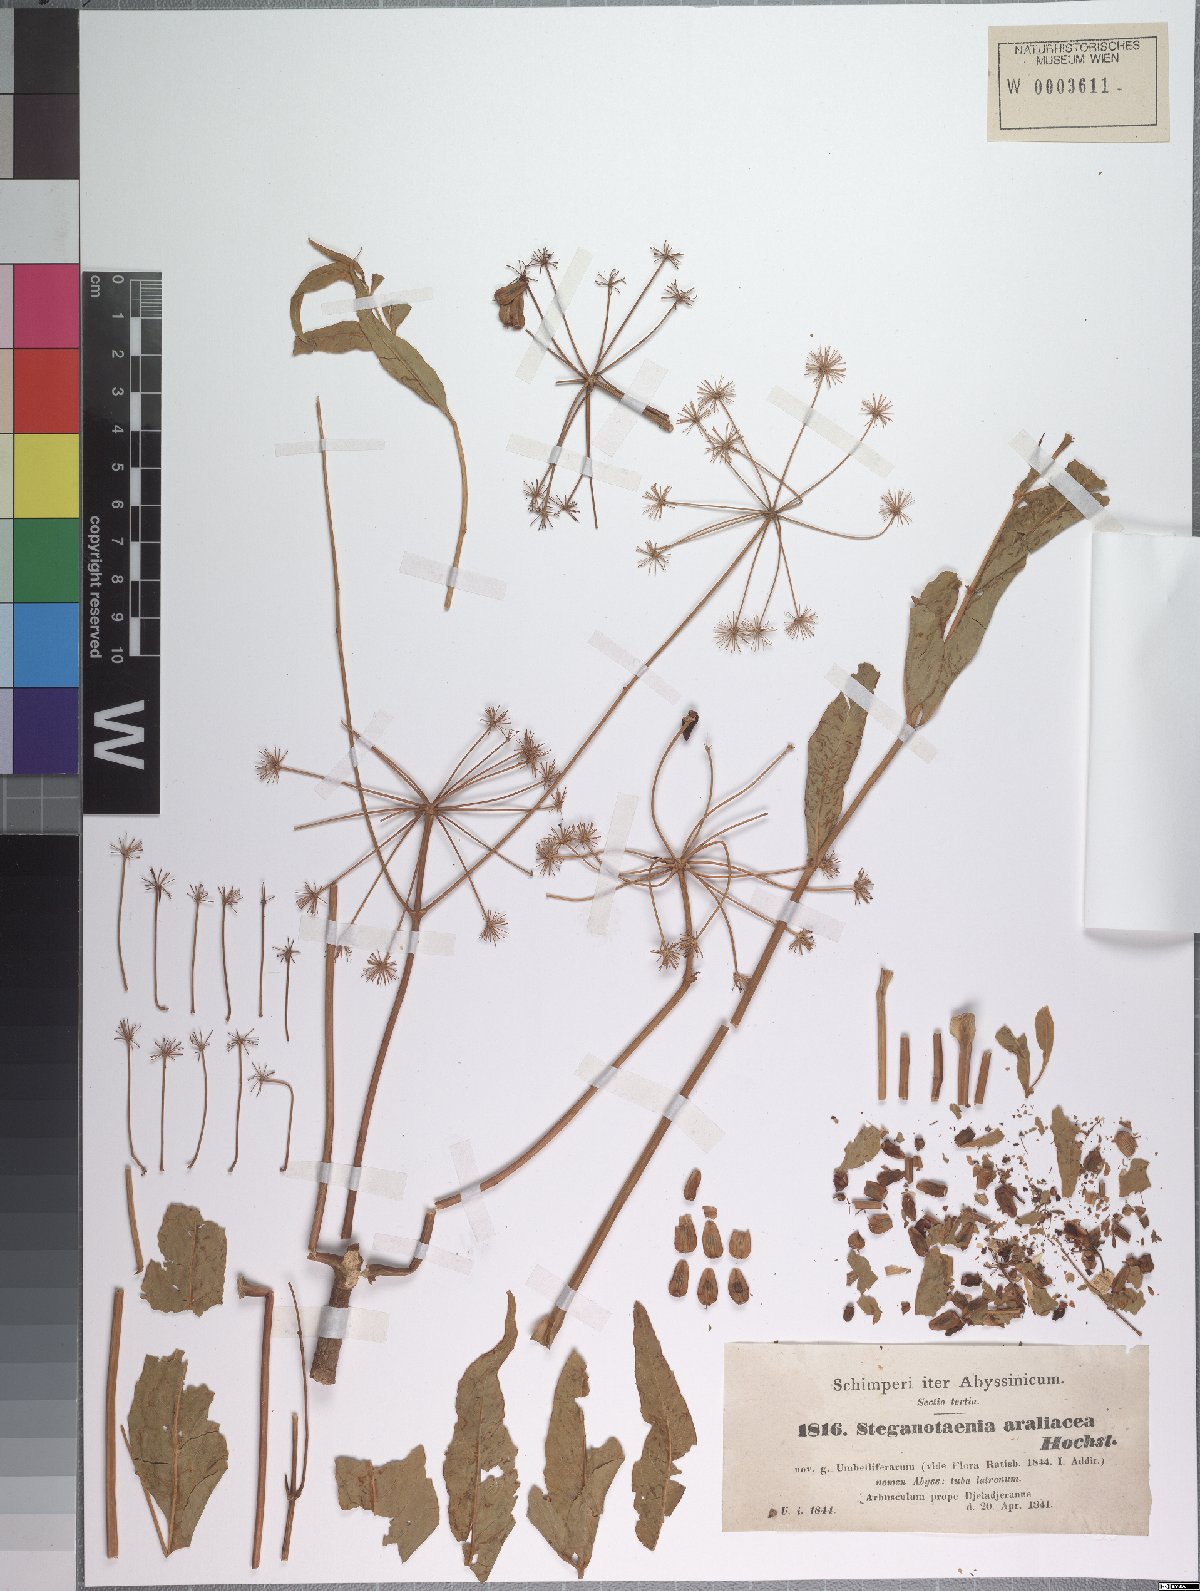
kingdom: Plantae
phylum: Tracheophyta
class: Magnoliopsida
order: Apiales
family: Apiaceae
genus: Steganotaenia
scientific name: Steganotaenia araliacea
